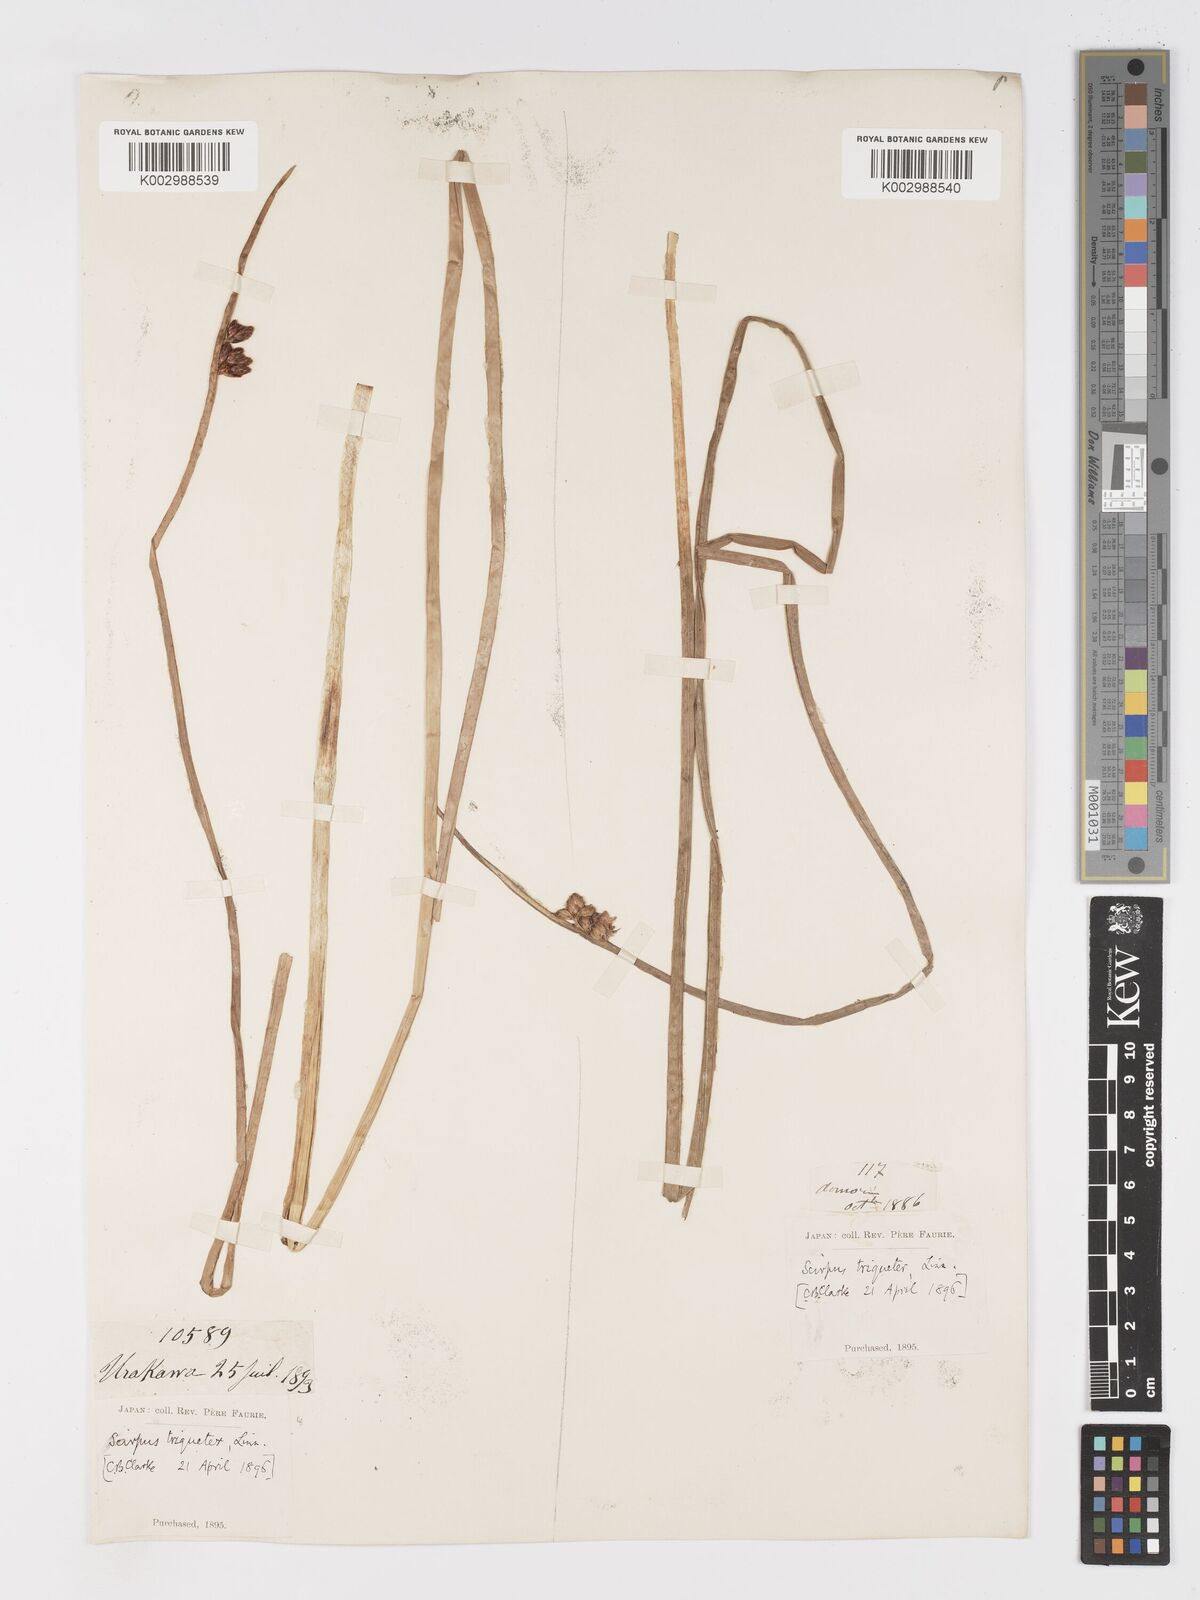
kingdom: Plantae
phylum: Tracheophyta
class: Liliopsida
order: Poales
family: Cyperaceae
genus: Schoenoplectus
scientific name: Schoenoplectus triqueter
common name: Triangular club-rush
